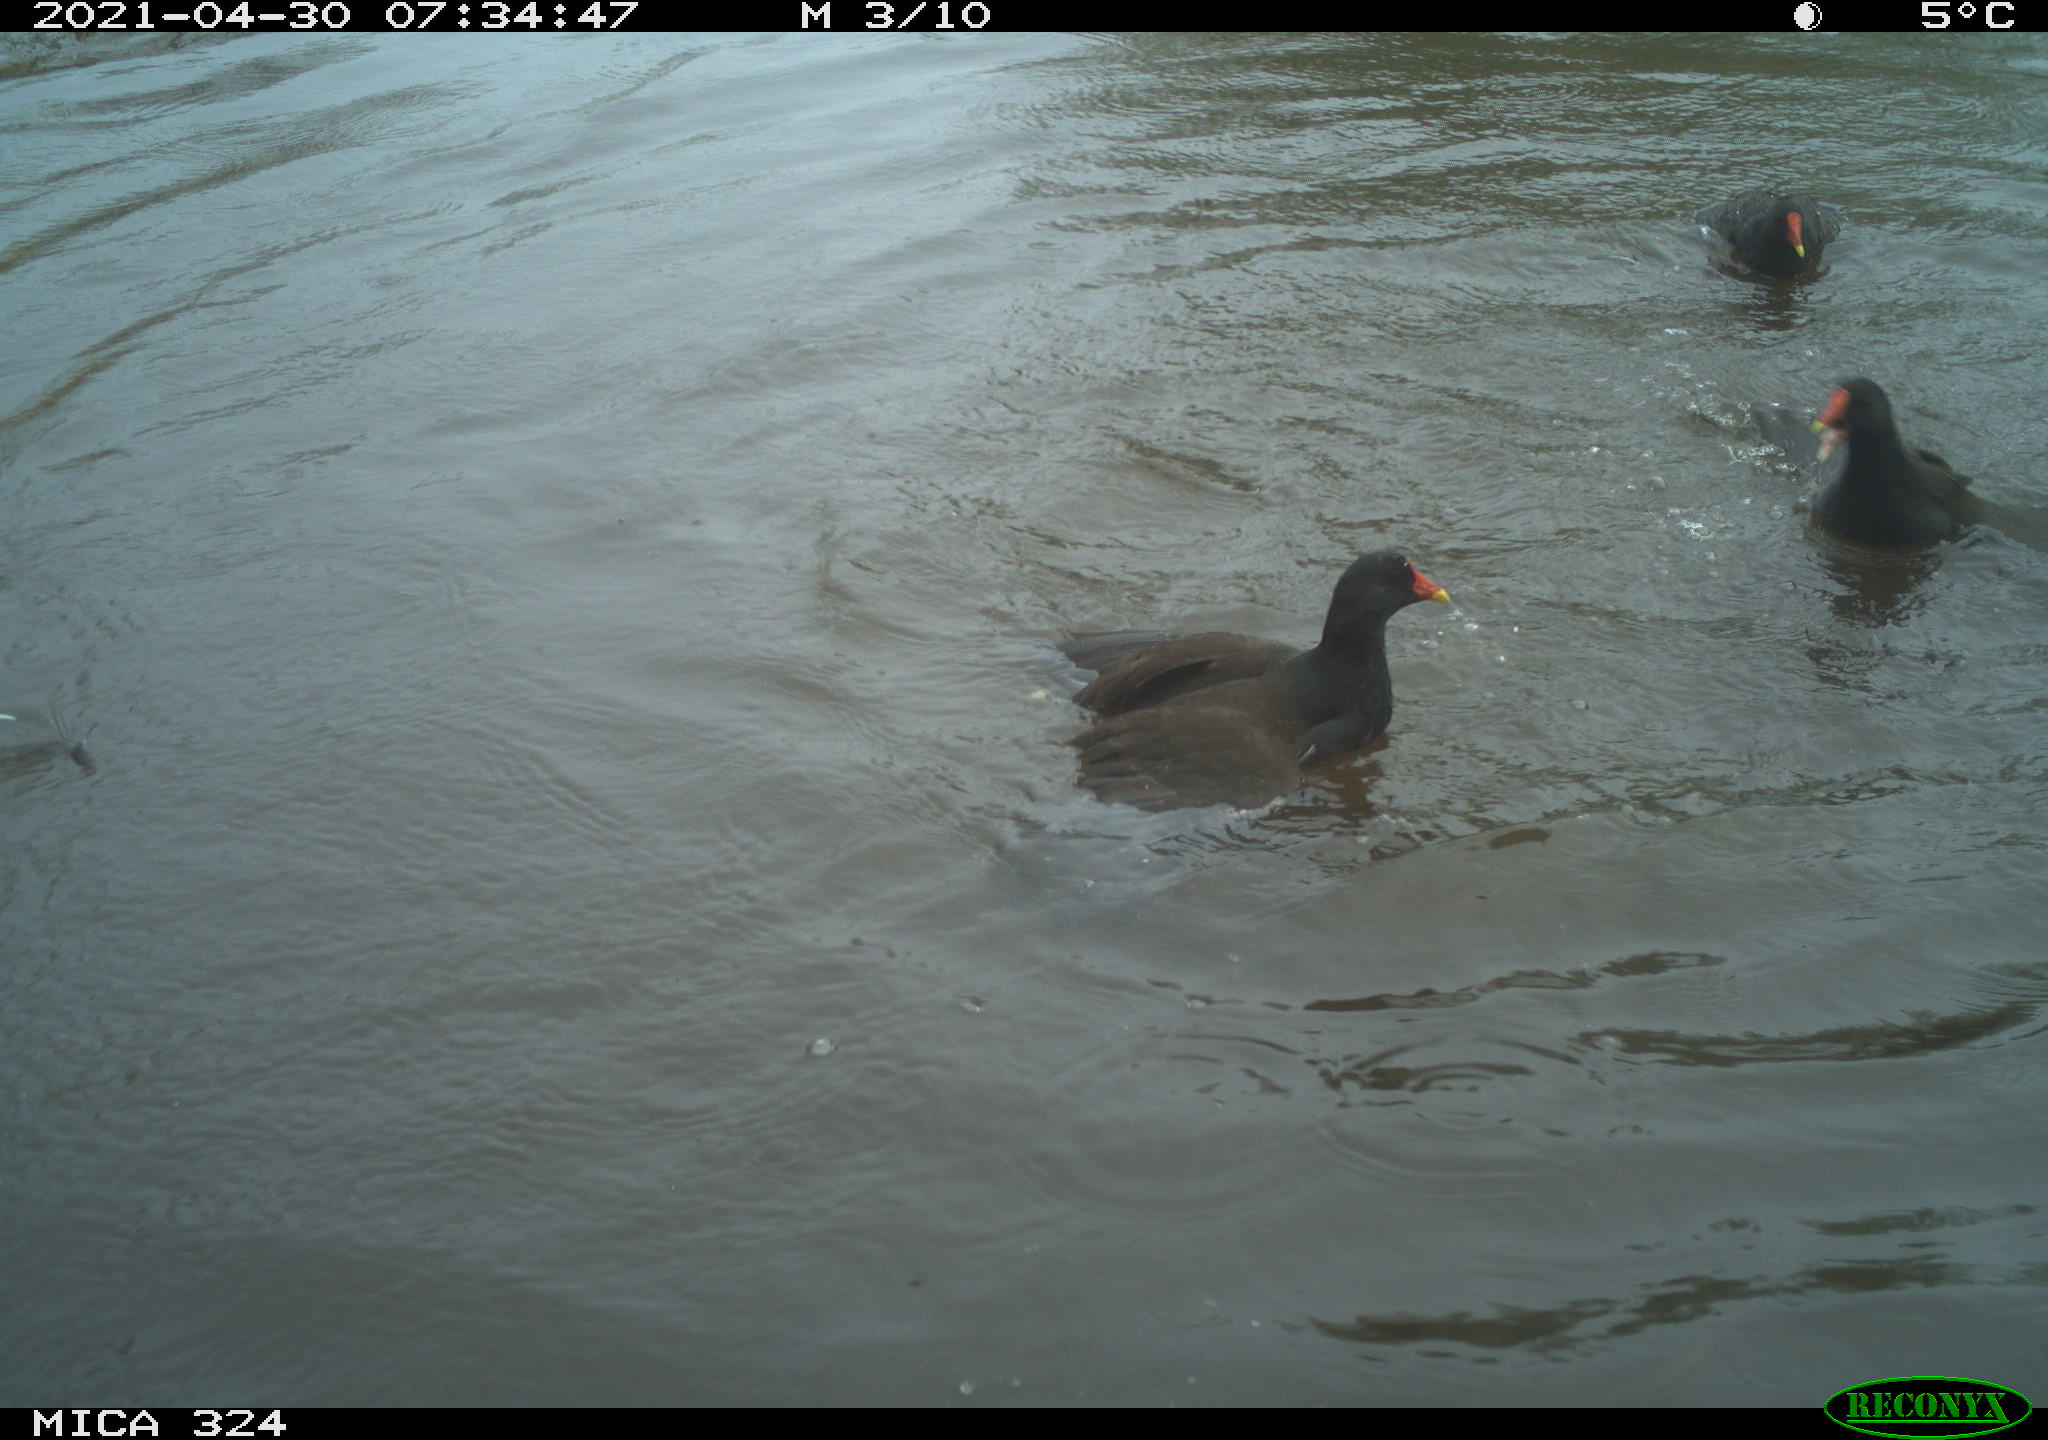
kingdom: Animalia
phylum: Chordata
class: Aves
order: Gruiformes
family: Rallidae
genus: Gallinula
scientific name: Gallinula chloropus
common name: Common moorhen
